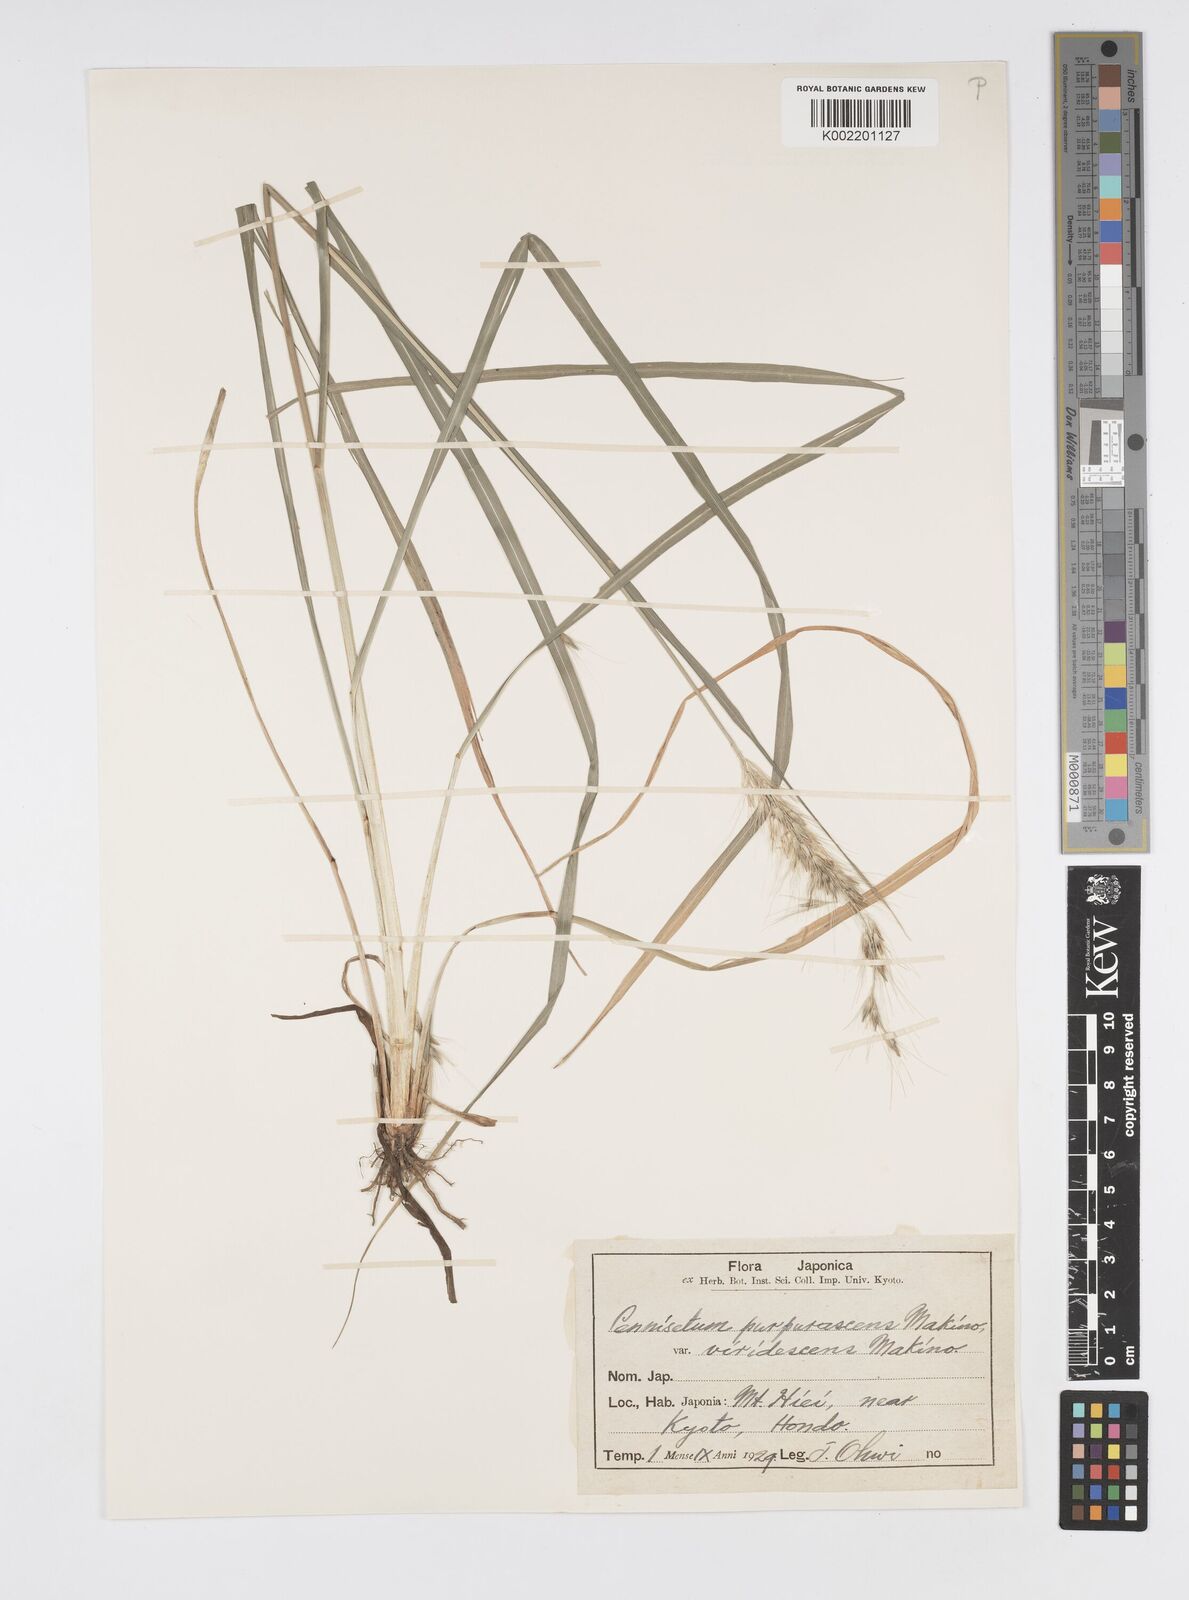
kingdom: Plantae
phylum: Tracheophyta
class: Liliopsida
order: Poales
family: Poaceae
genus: Cenchrus
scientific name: Cenchrus alopecuroides
